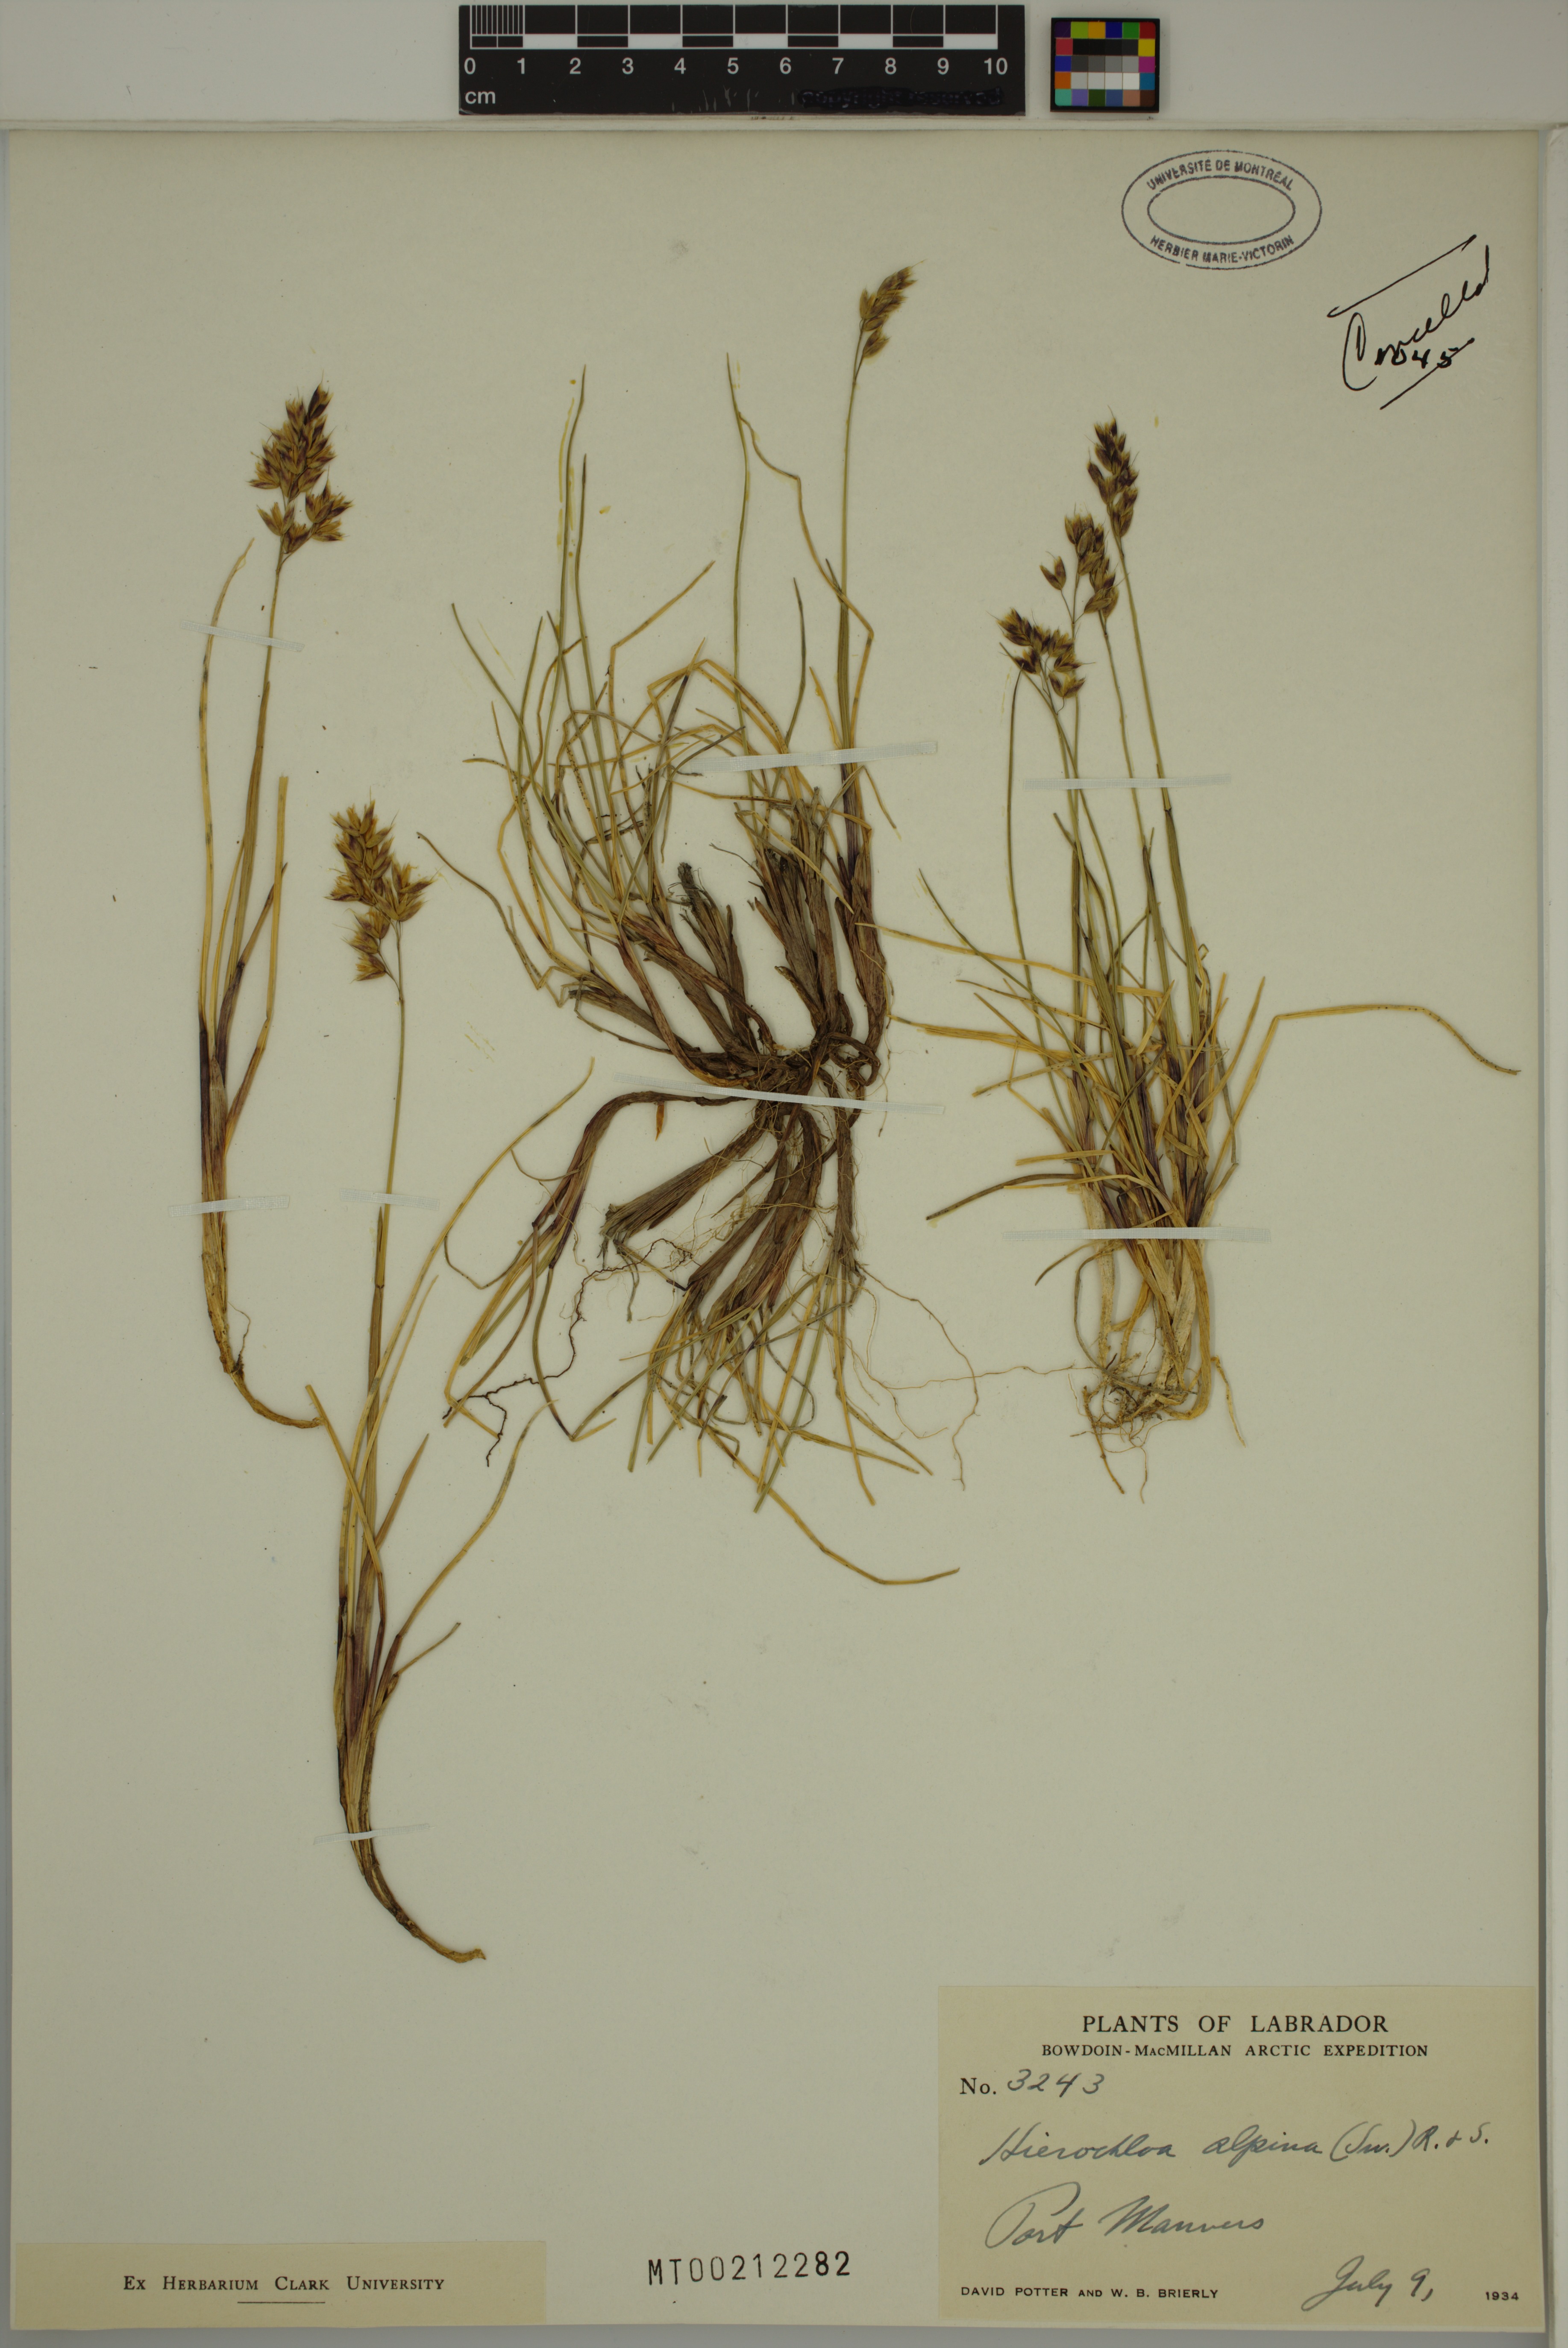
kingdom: Plantae
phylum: Tracheophyta
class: Liliopsida
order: Poales
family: Poaceae
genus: Anthoxanthum
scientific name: Anthoxanthum monticola
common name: Alpine sweetgrass
